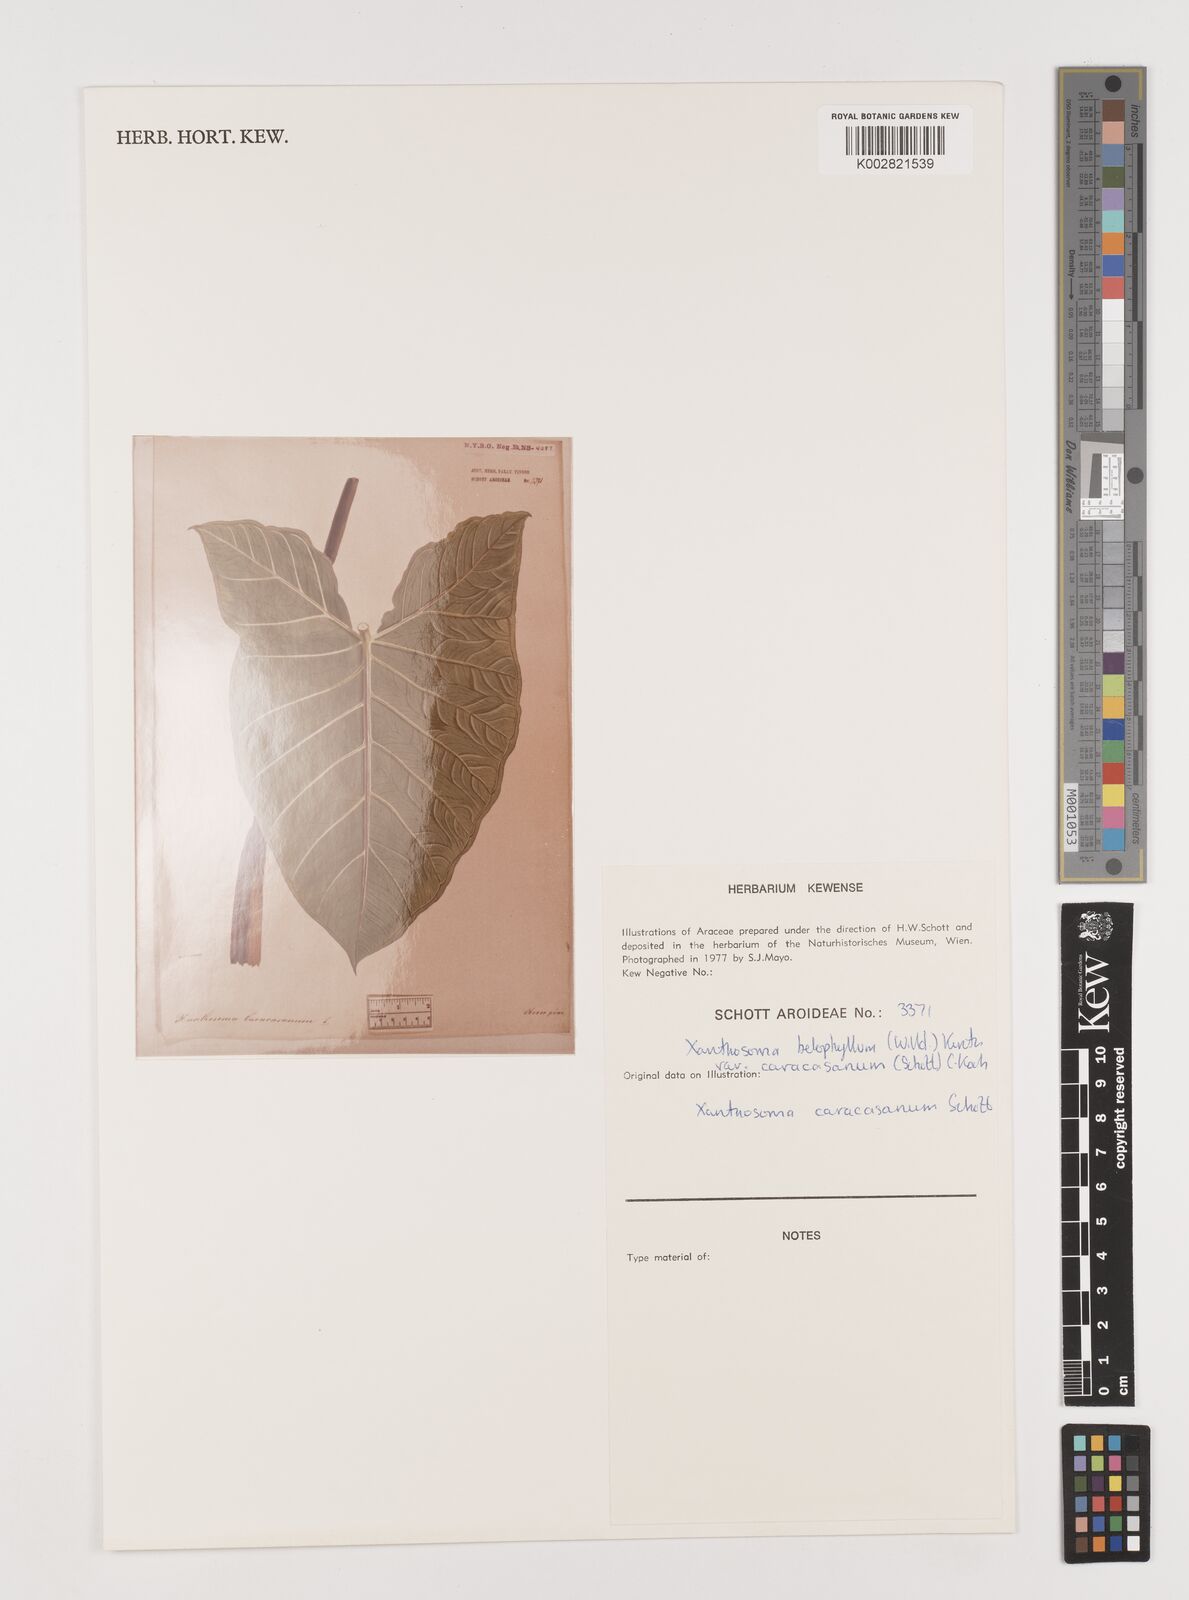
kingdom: Plantae
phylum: Tracheophyta
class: Liliopsida
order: Alismatales
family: Araceae
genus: Xanthosoma
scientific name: Xanthosoma belophyllum
